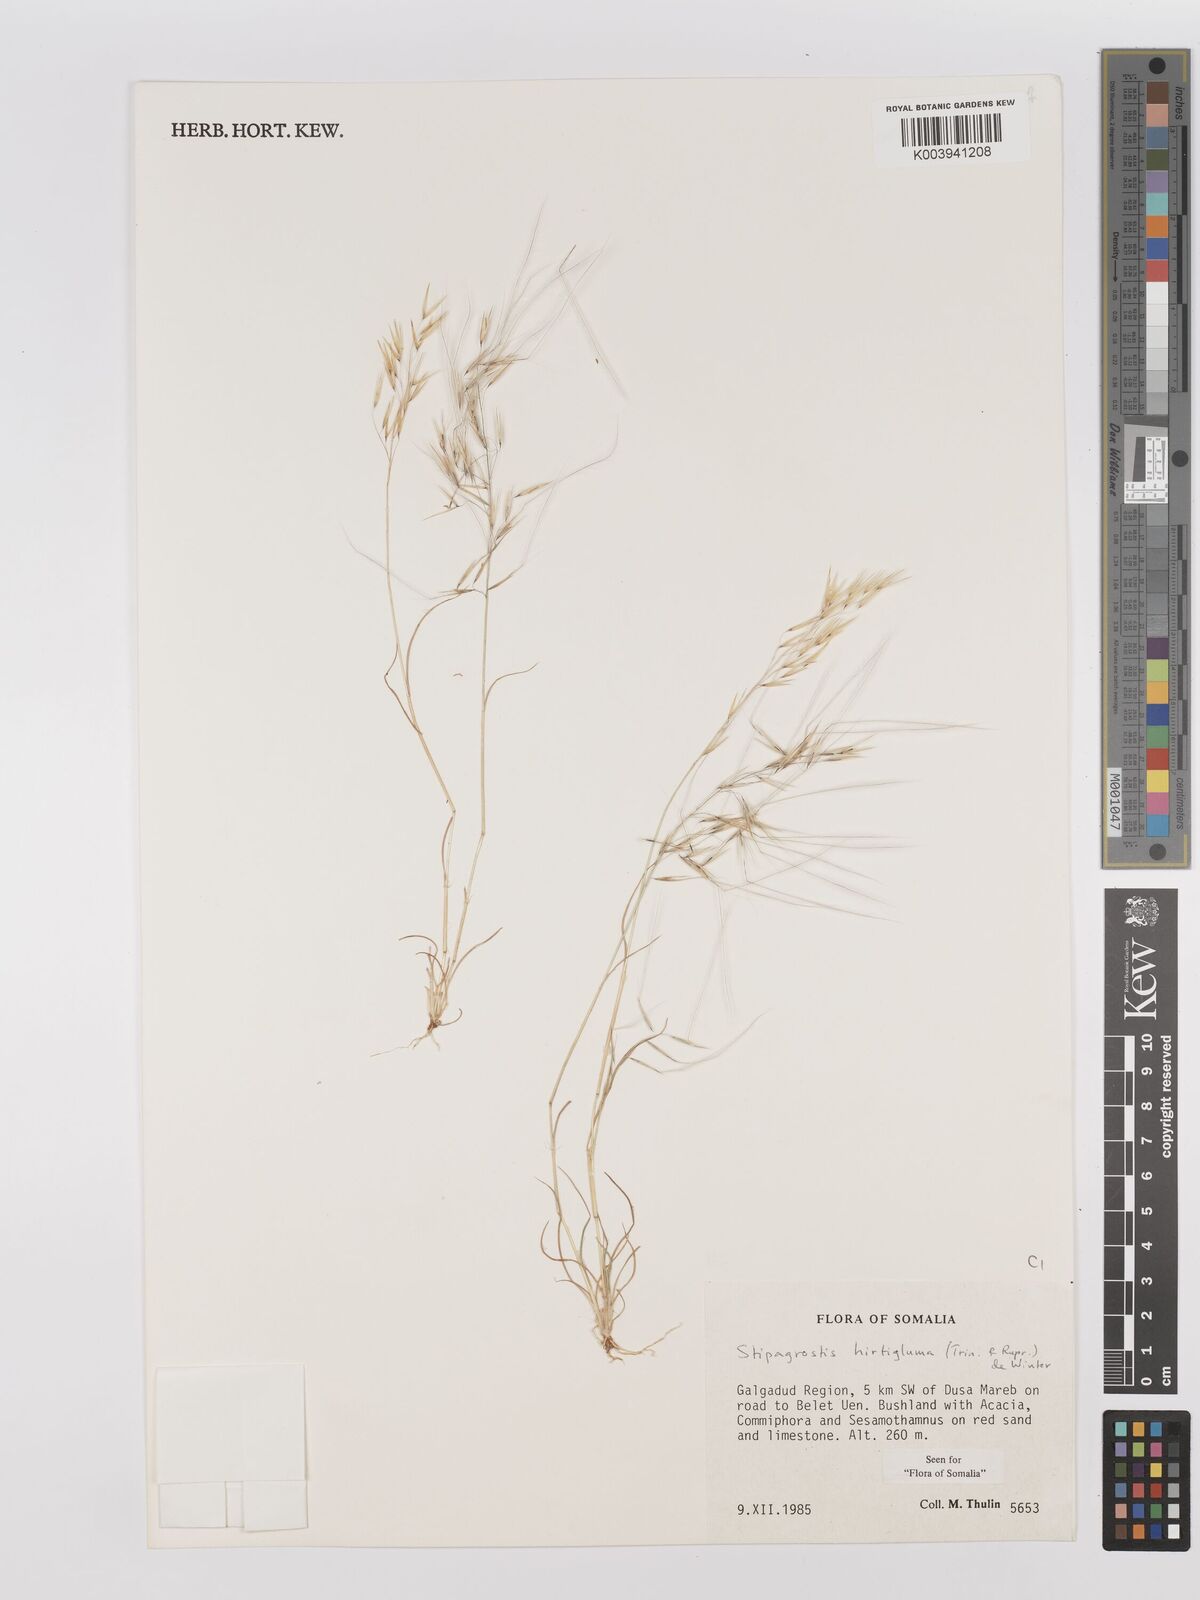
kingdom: Plantae
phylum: Tracheophyta
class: Liliopsida
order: Poales
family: Poaceae
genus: Stipagrostis
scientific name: Stipagrostis hirtigluma
